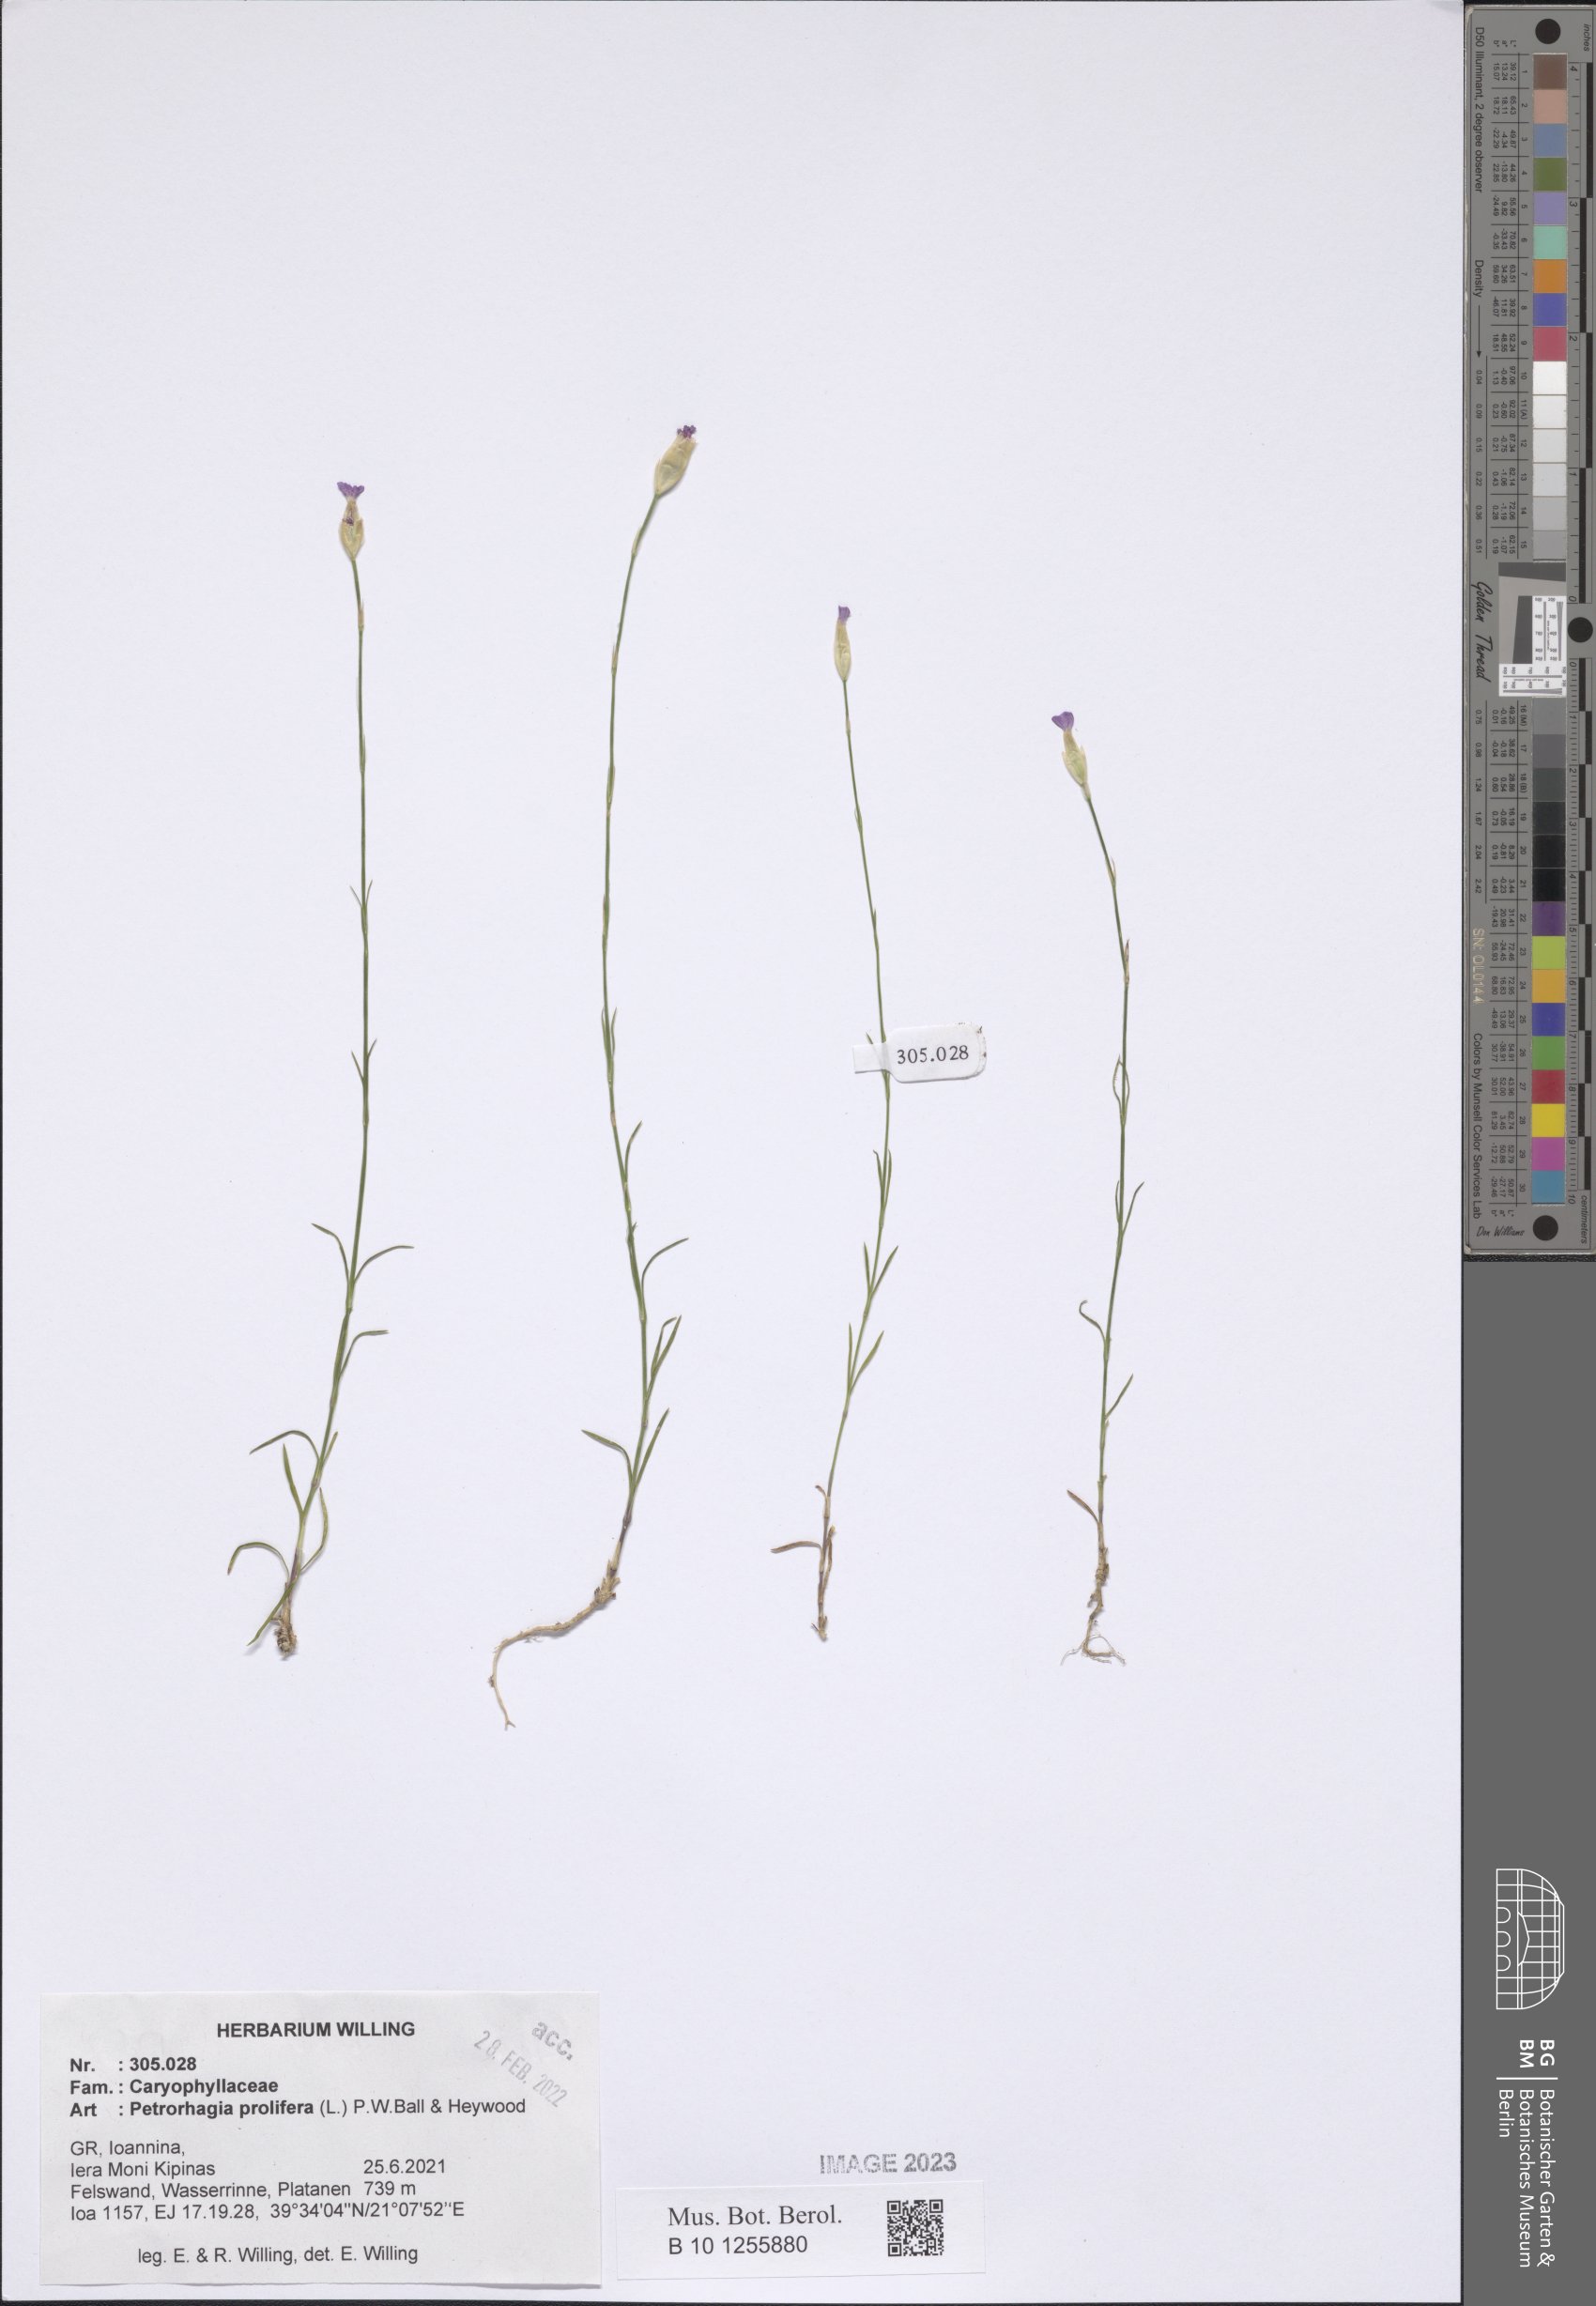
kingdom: Plantae
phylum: Tracheophyta
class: Magnoliopsida
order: Caryophyllales
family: Caryophyllaceae
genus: Petrorhagia
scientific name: Petrorhagia prolifera
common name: Proliferous pink
